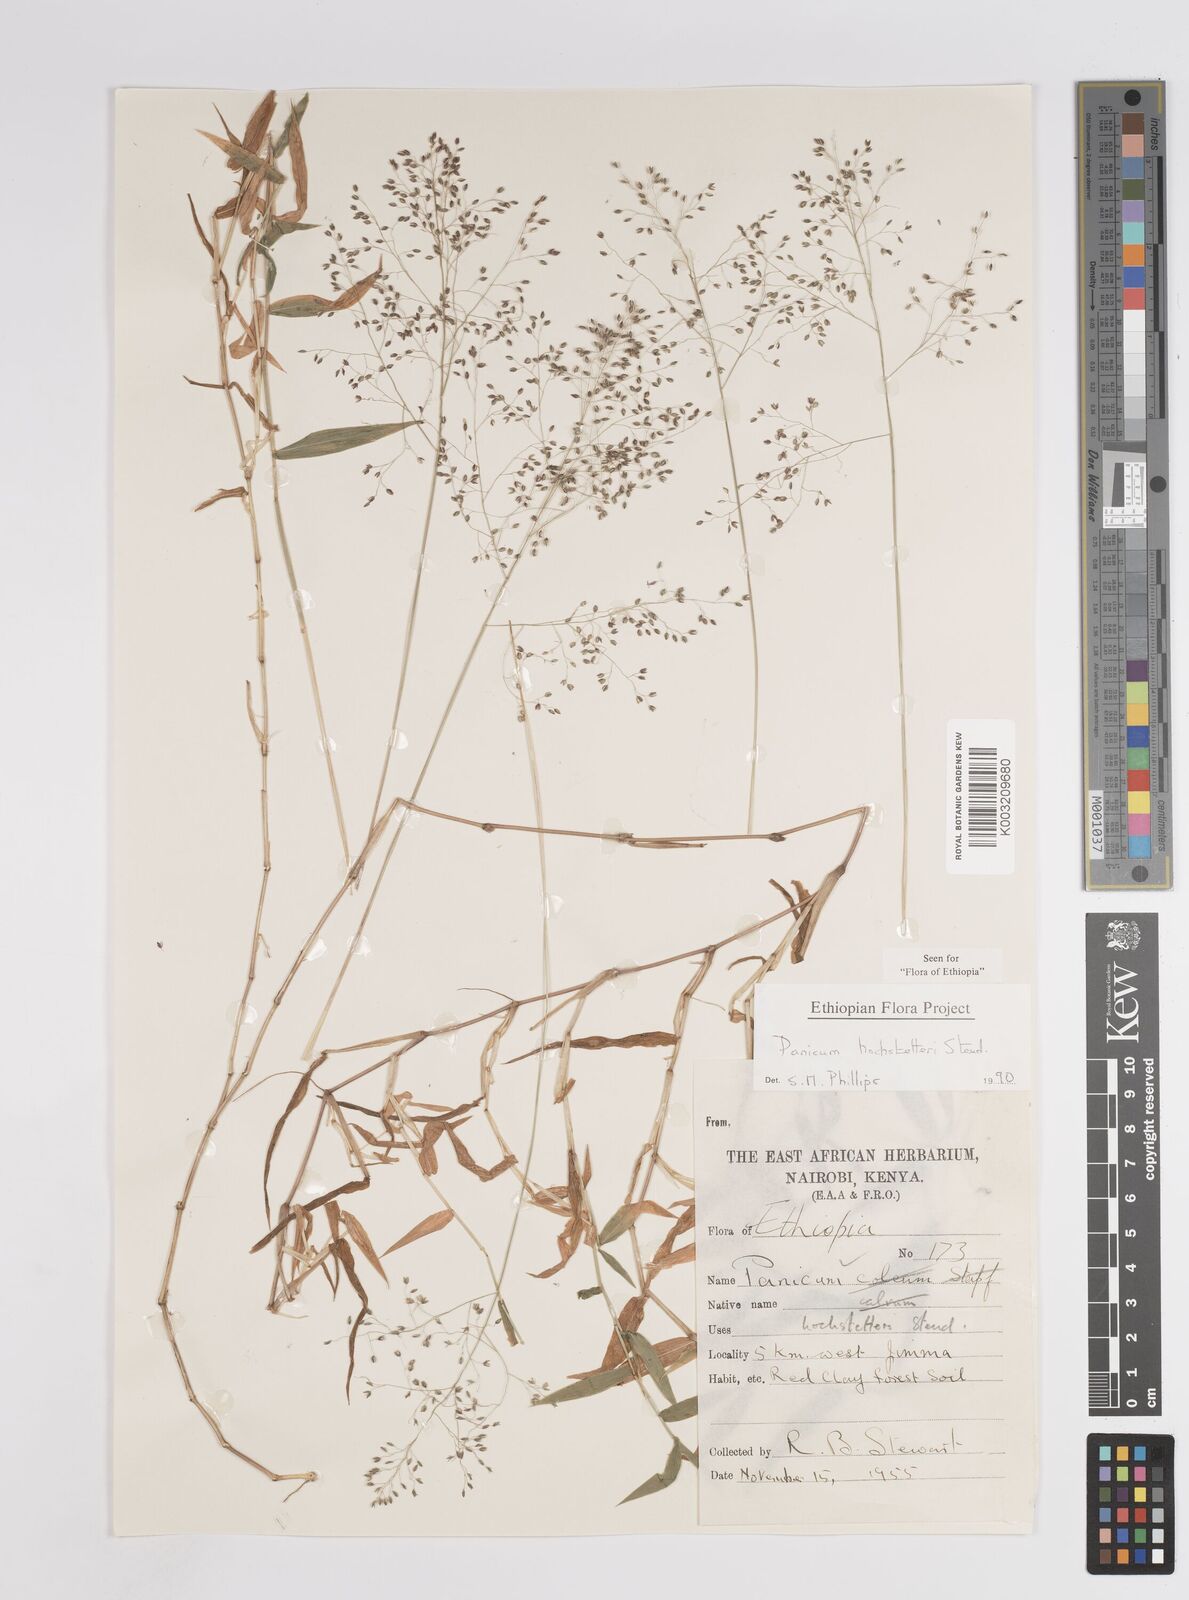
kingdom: Plantae
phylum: Tracheophyta
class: Liliopsida
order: Poales
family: Poaceae
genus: Panicum
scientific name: Panicum hochstetteri
